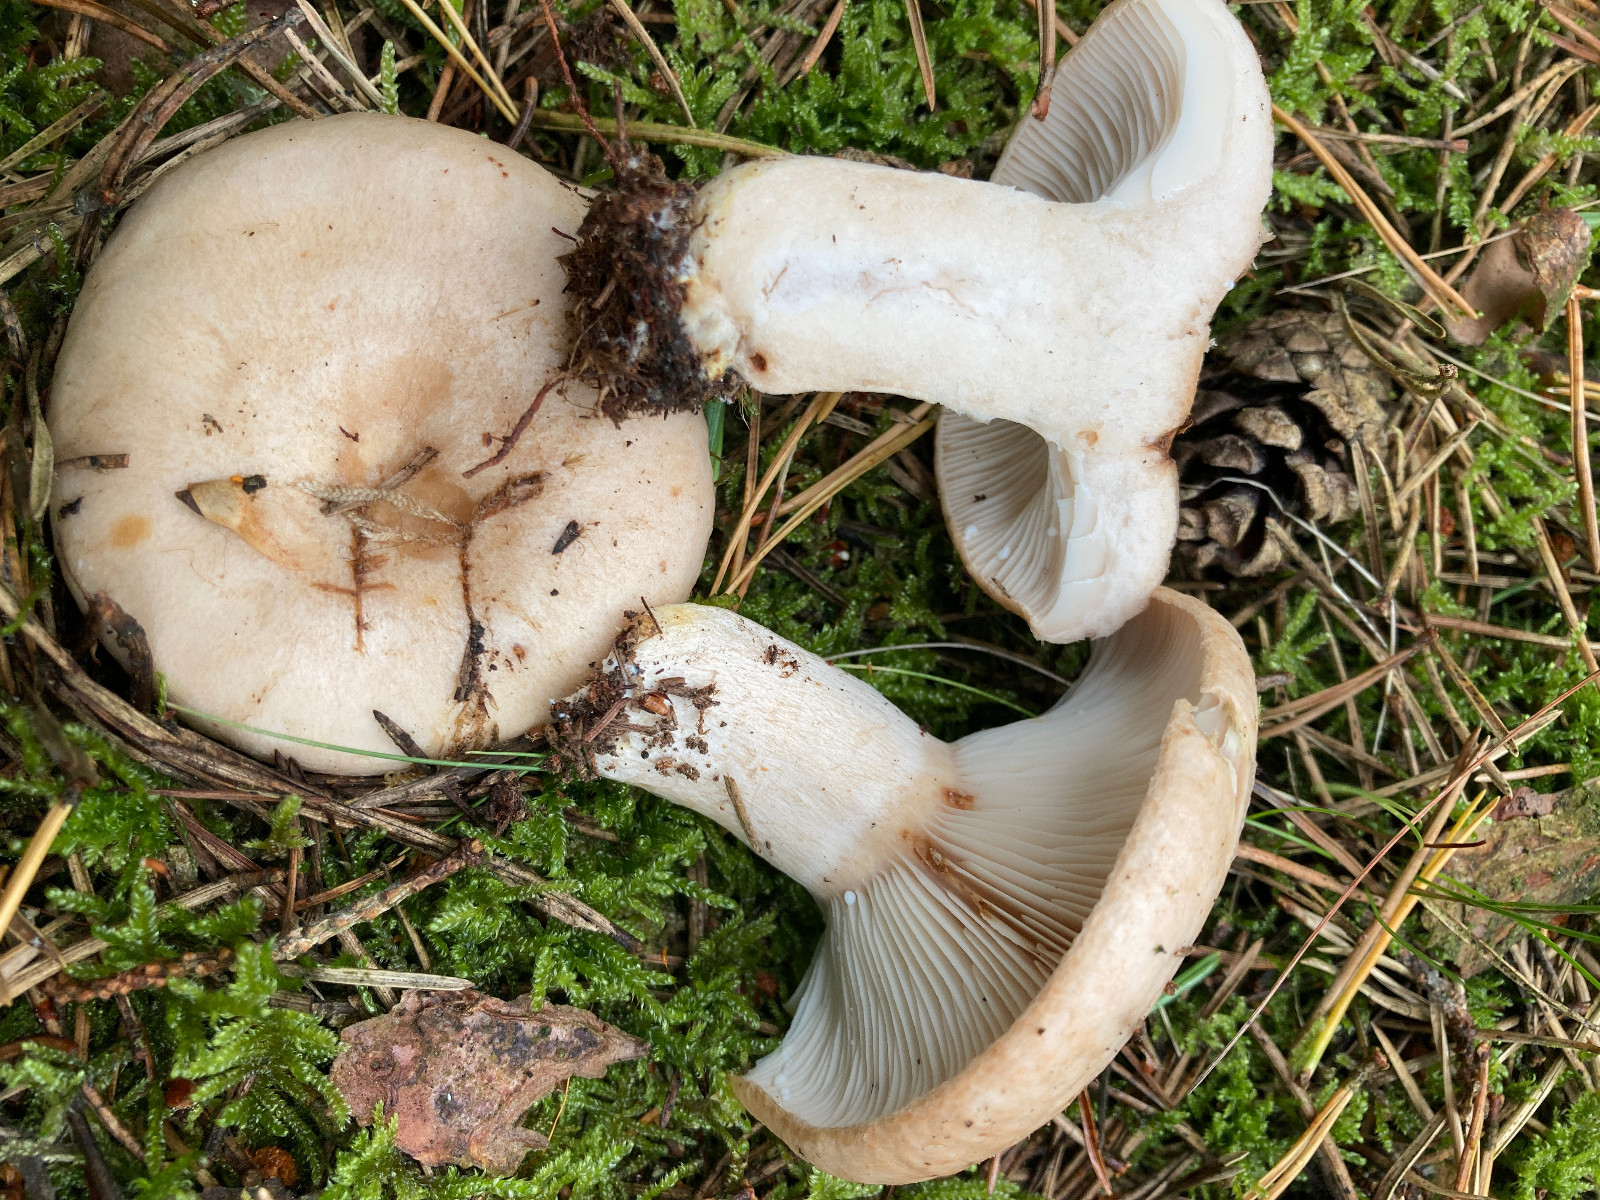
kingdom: Fungi
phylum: Basidiomycota
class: Agaricomycetes
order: Russulales
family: Russulaceae
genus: Lactarius
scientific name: Lactarius musteus
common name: elfenbens-mælkehat
